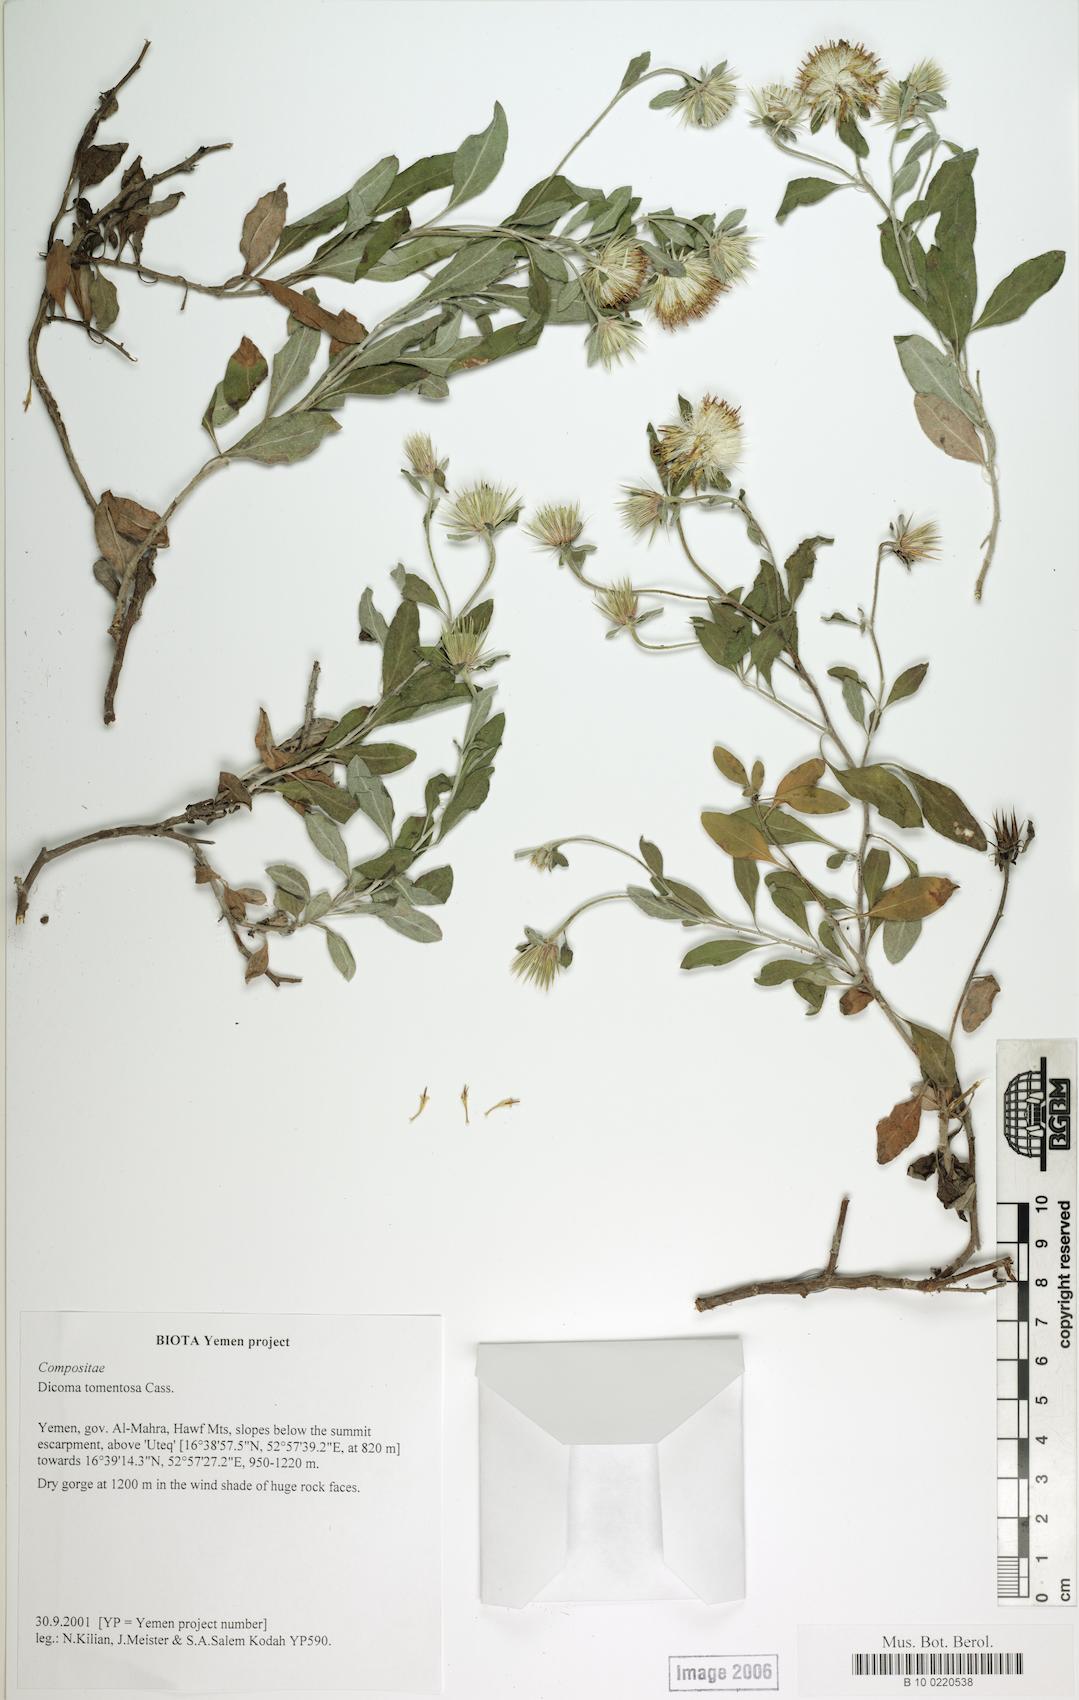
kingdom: Plantae
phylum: Tracheophyta
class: Magnoliopsida
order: Caryophyllales
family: Caryophyllaceae
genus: Stellaria
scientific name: Stellaria media
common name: Common chickweed
